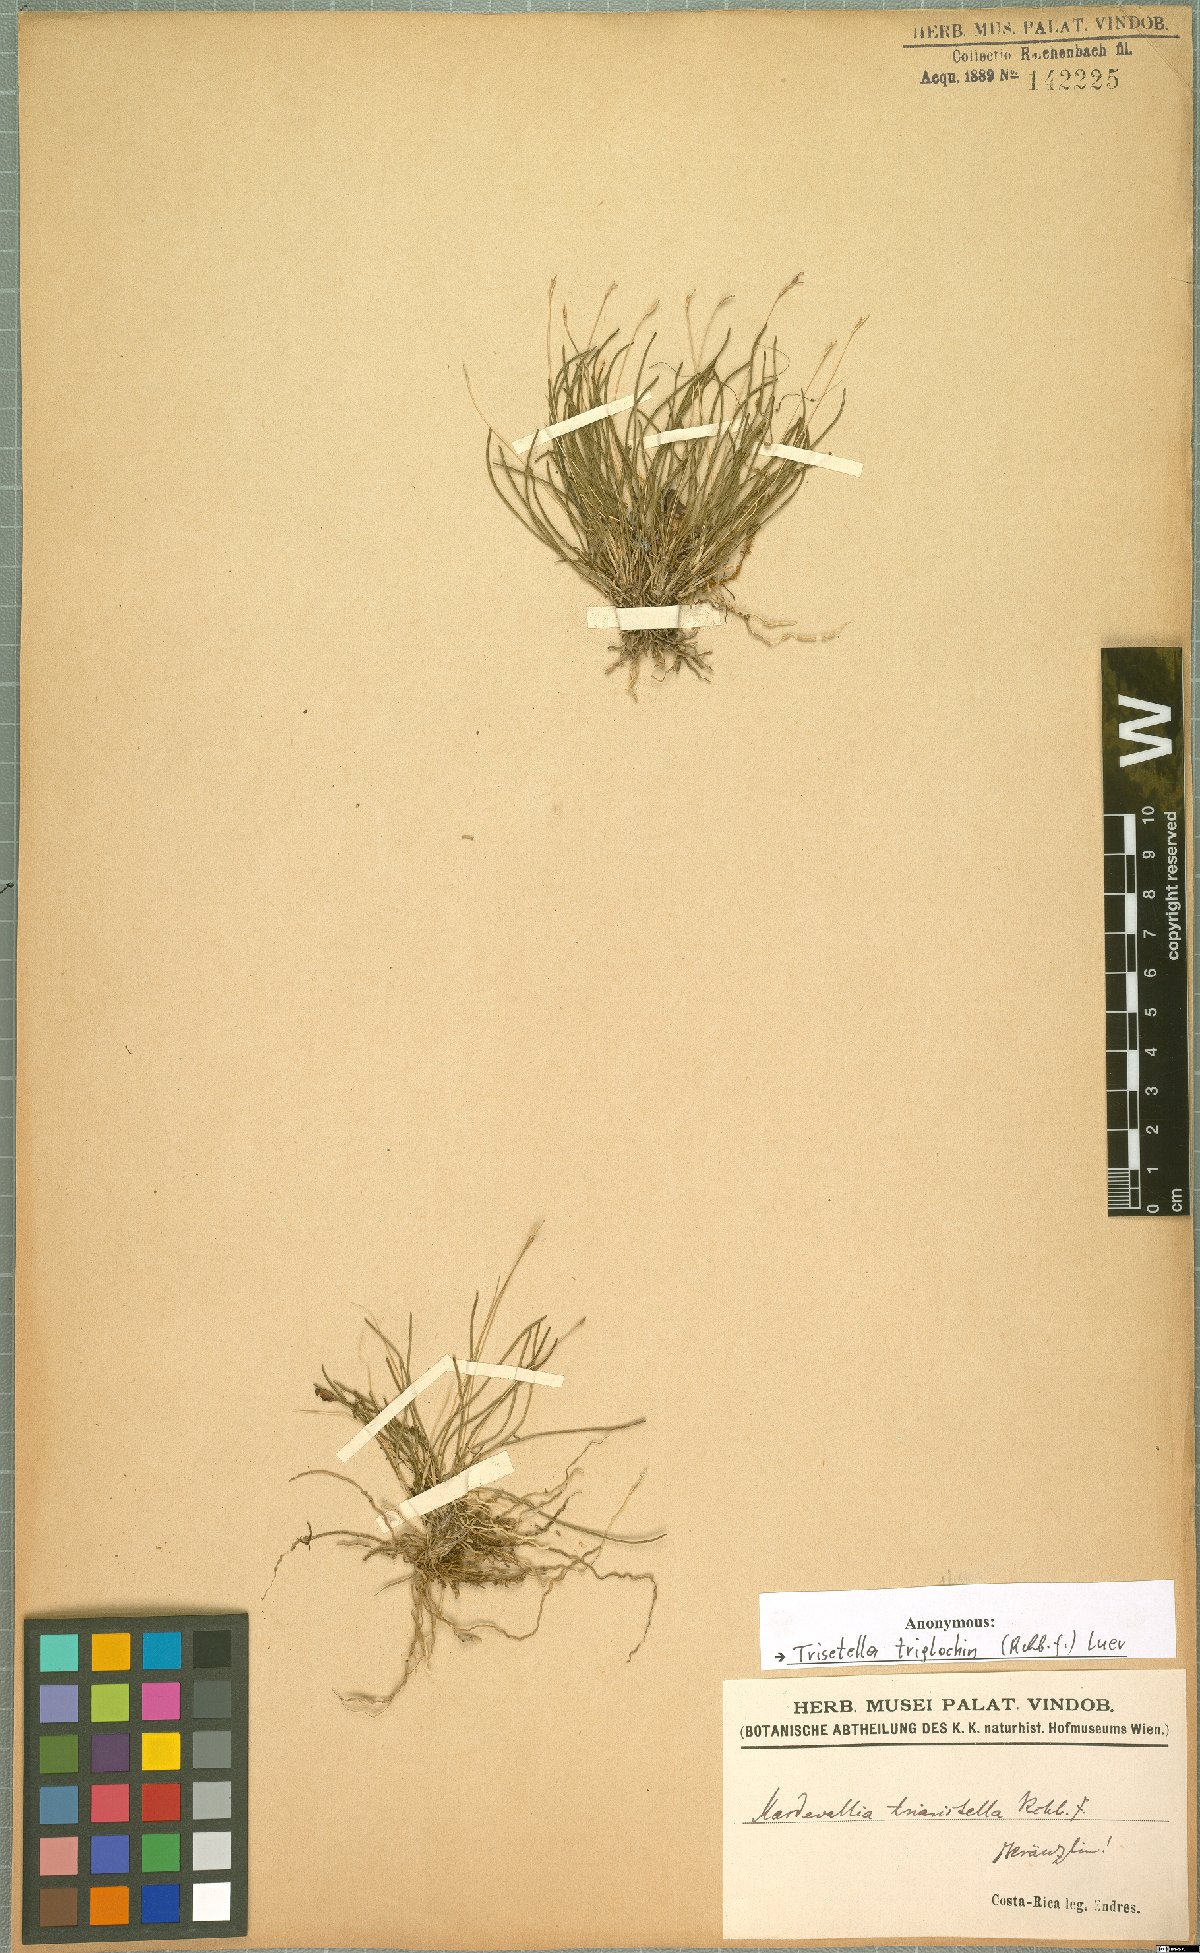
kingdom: Plantae
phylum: Tracheophyta
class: Liliopsida
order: Asparagales
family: Orchidaceae
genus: Trisetella
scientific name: Trisetella triglochin
